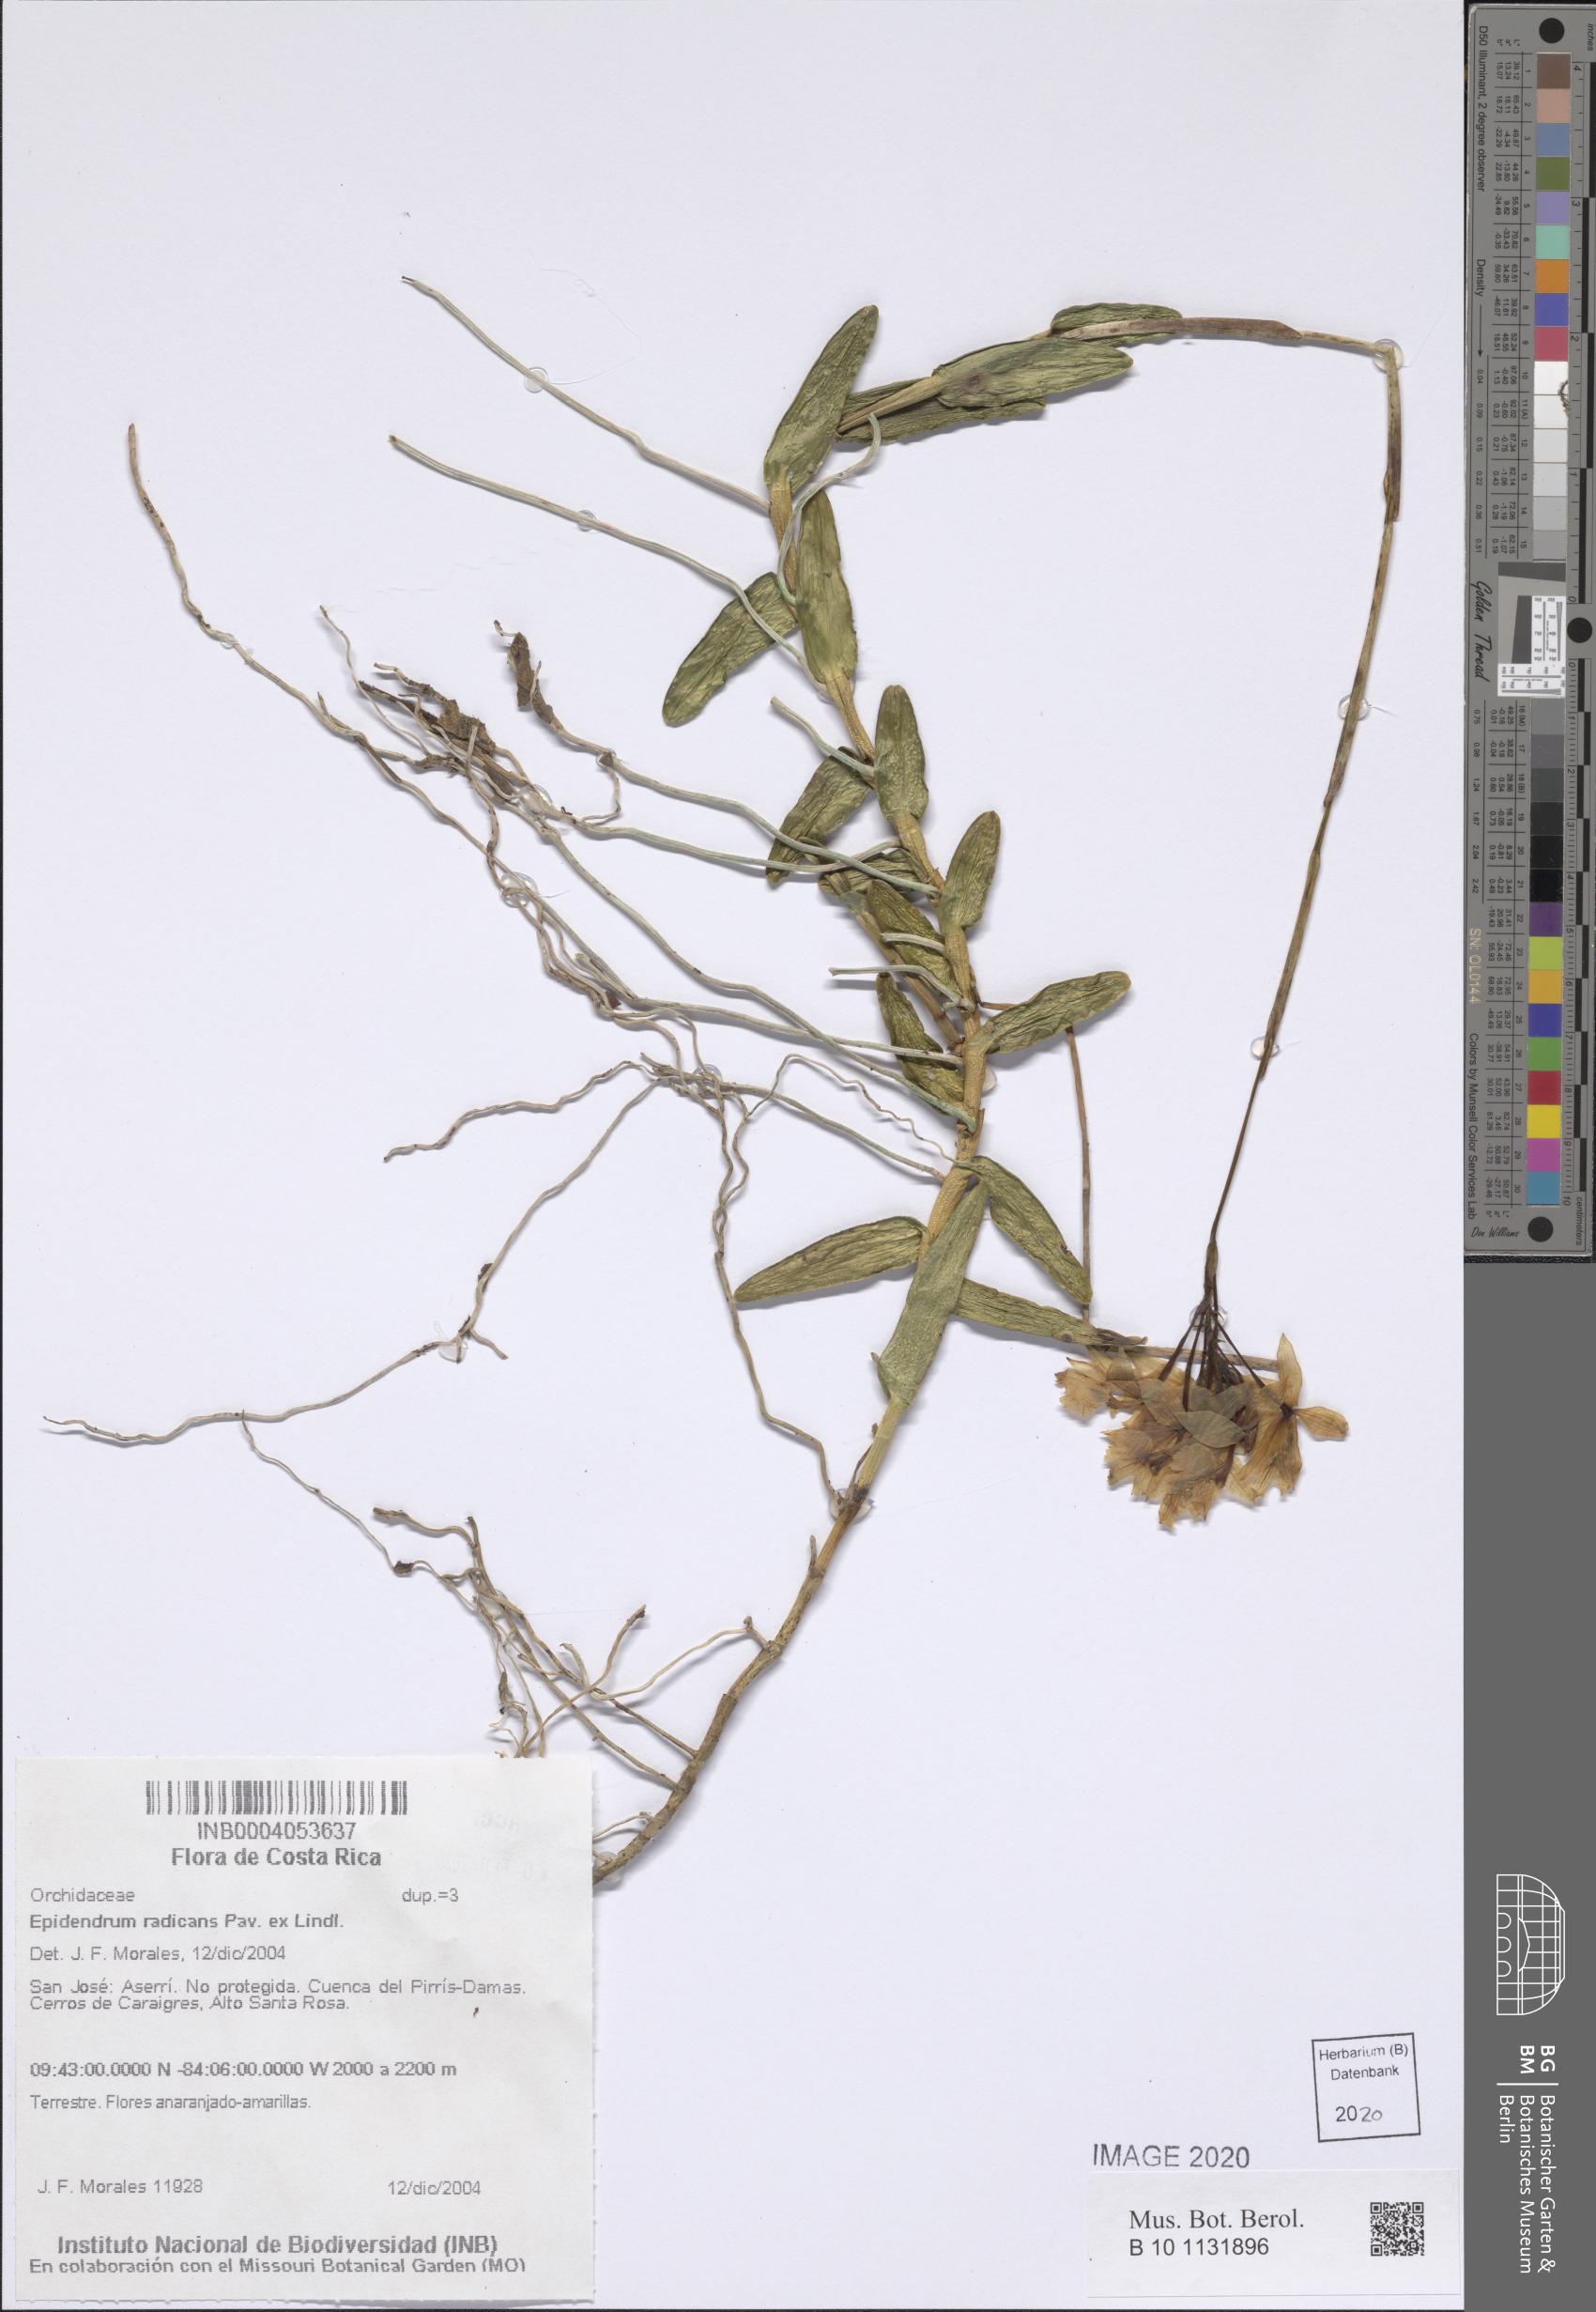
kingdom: Plantae
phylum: Tracheophyta
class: Liliopsida
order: Asparagales
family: Orchidaceae
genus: Epidendrum
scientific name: Epidendrum radicans
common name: Fire star orchid
